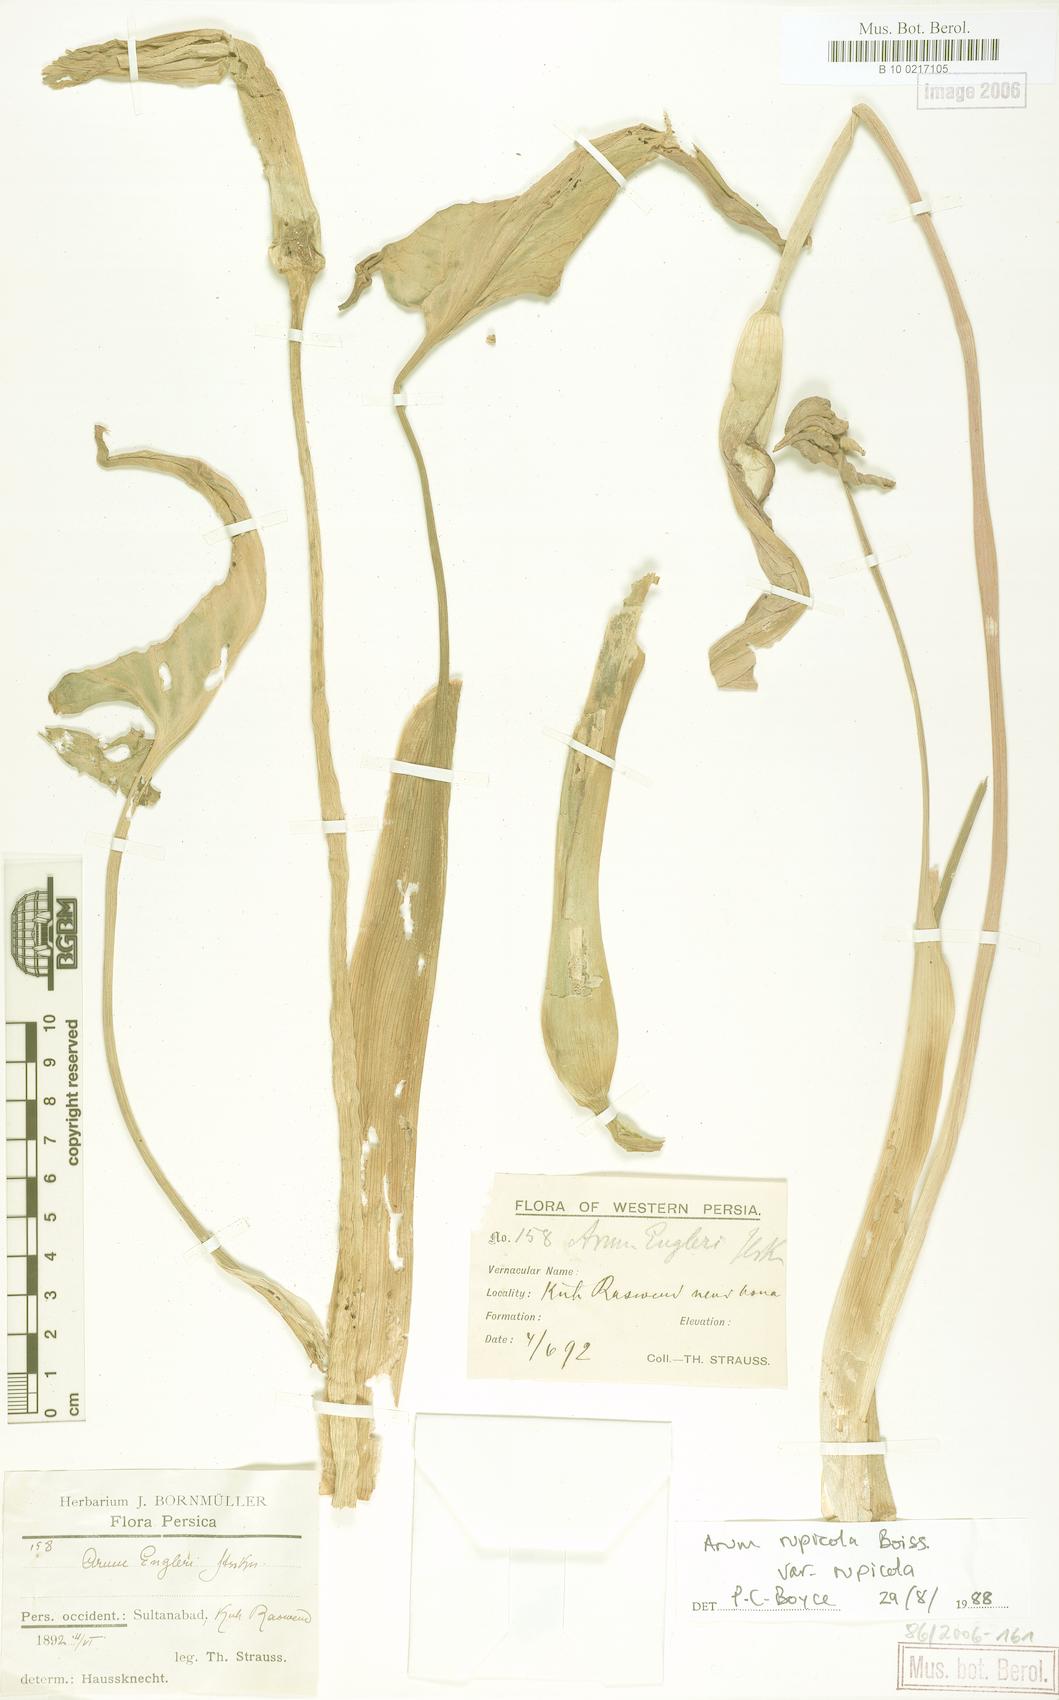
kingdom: Plantae
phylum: Tracheophyta
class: Liliopsida
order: Alismatales
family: Araceae
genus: Arum
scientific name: Arum rupicola
